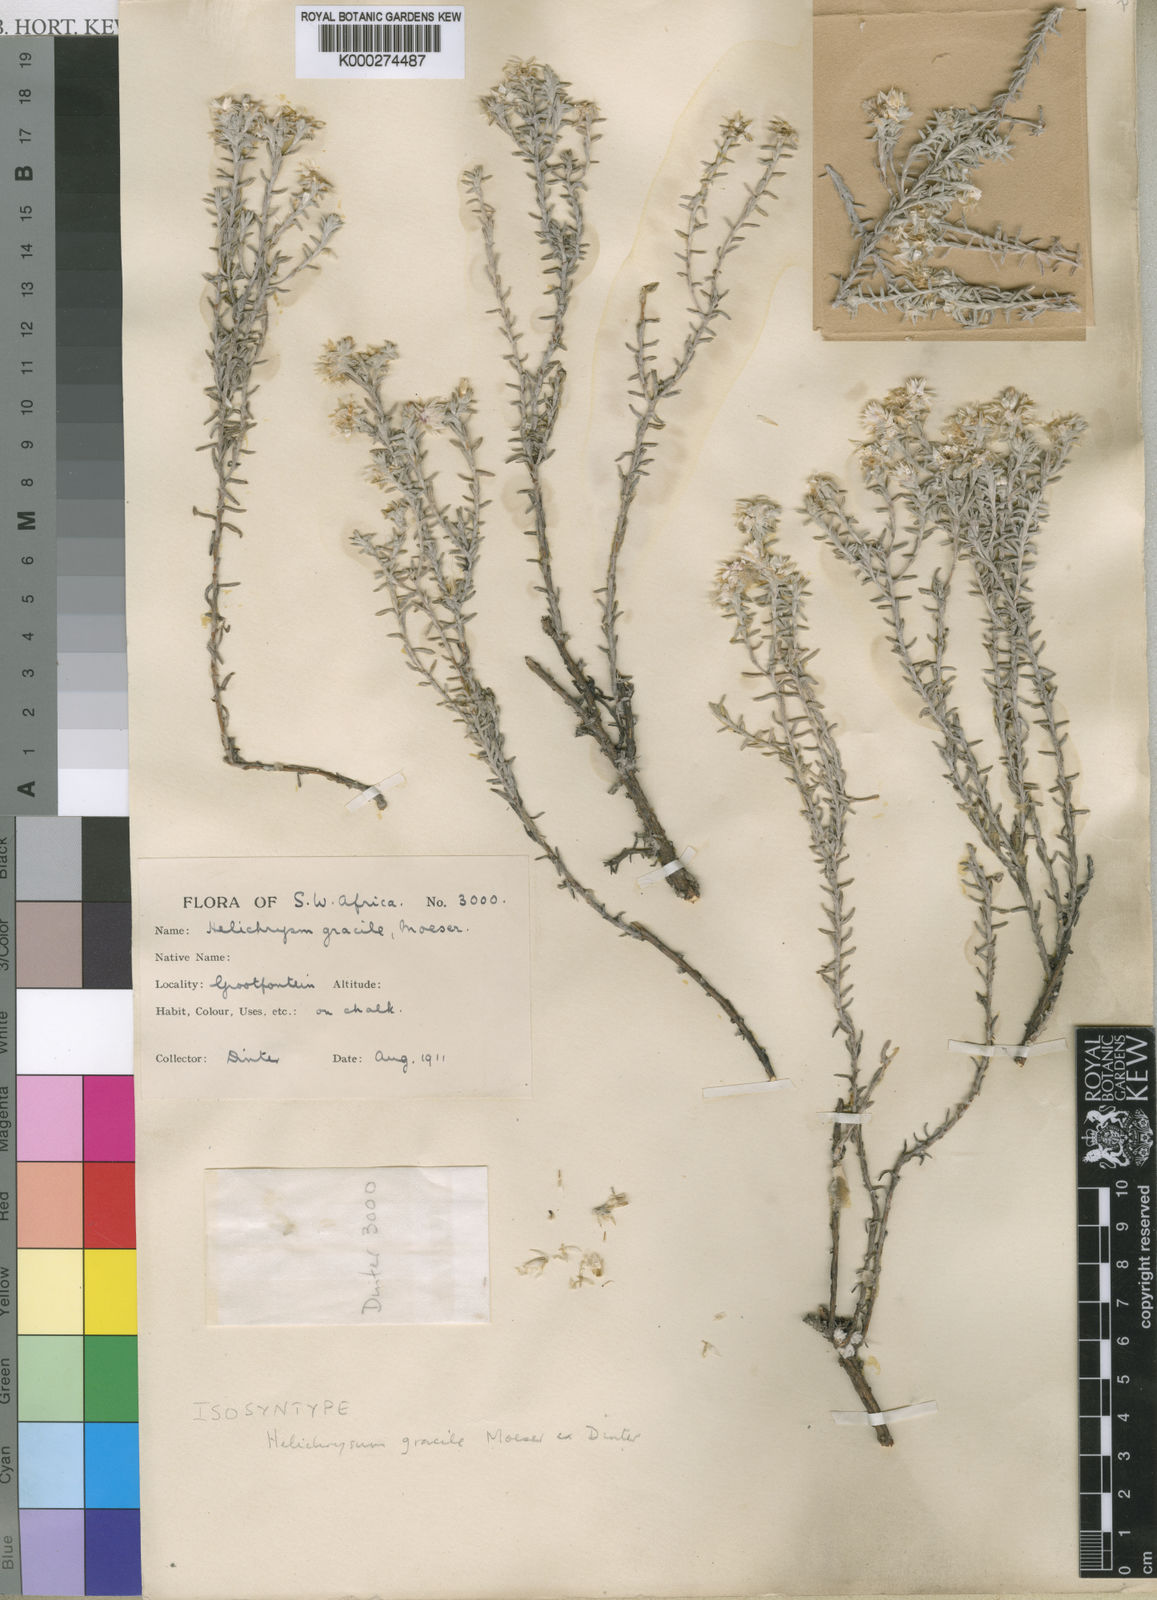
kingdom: Plantae
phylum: Tracheophyta
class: Magnoliopsida
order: Asterales
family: Asteraceae
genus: Helichrysum
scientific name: Helichrysum cerastioides
